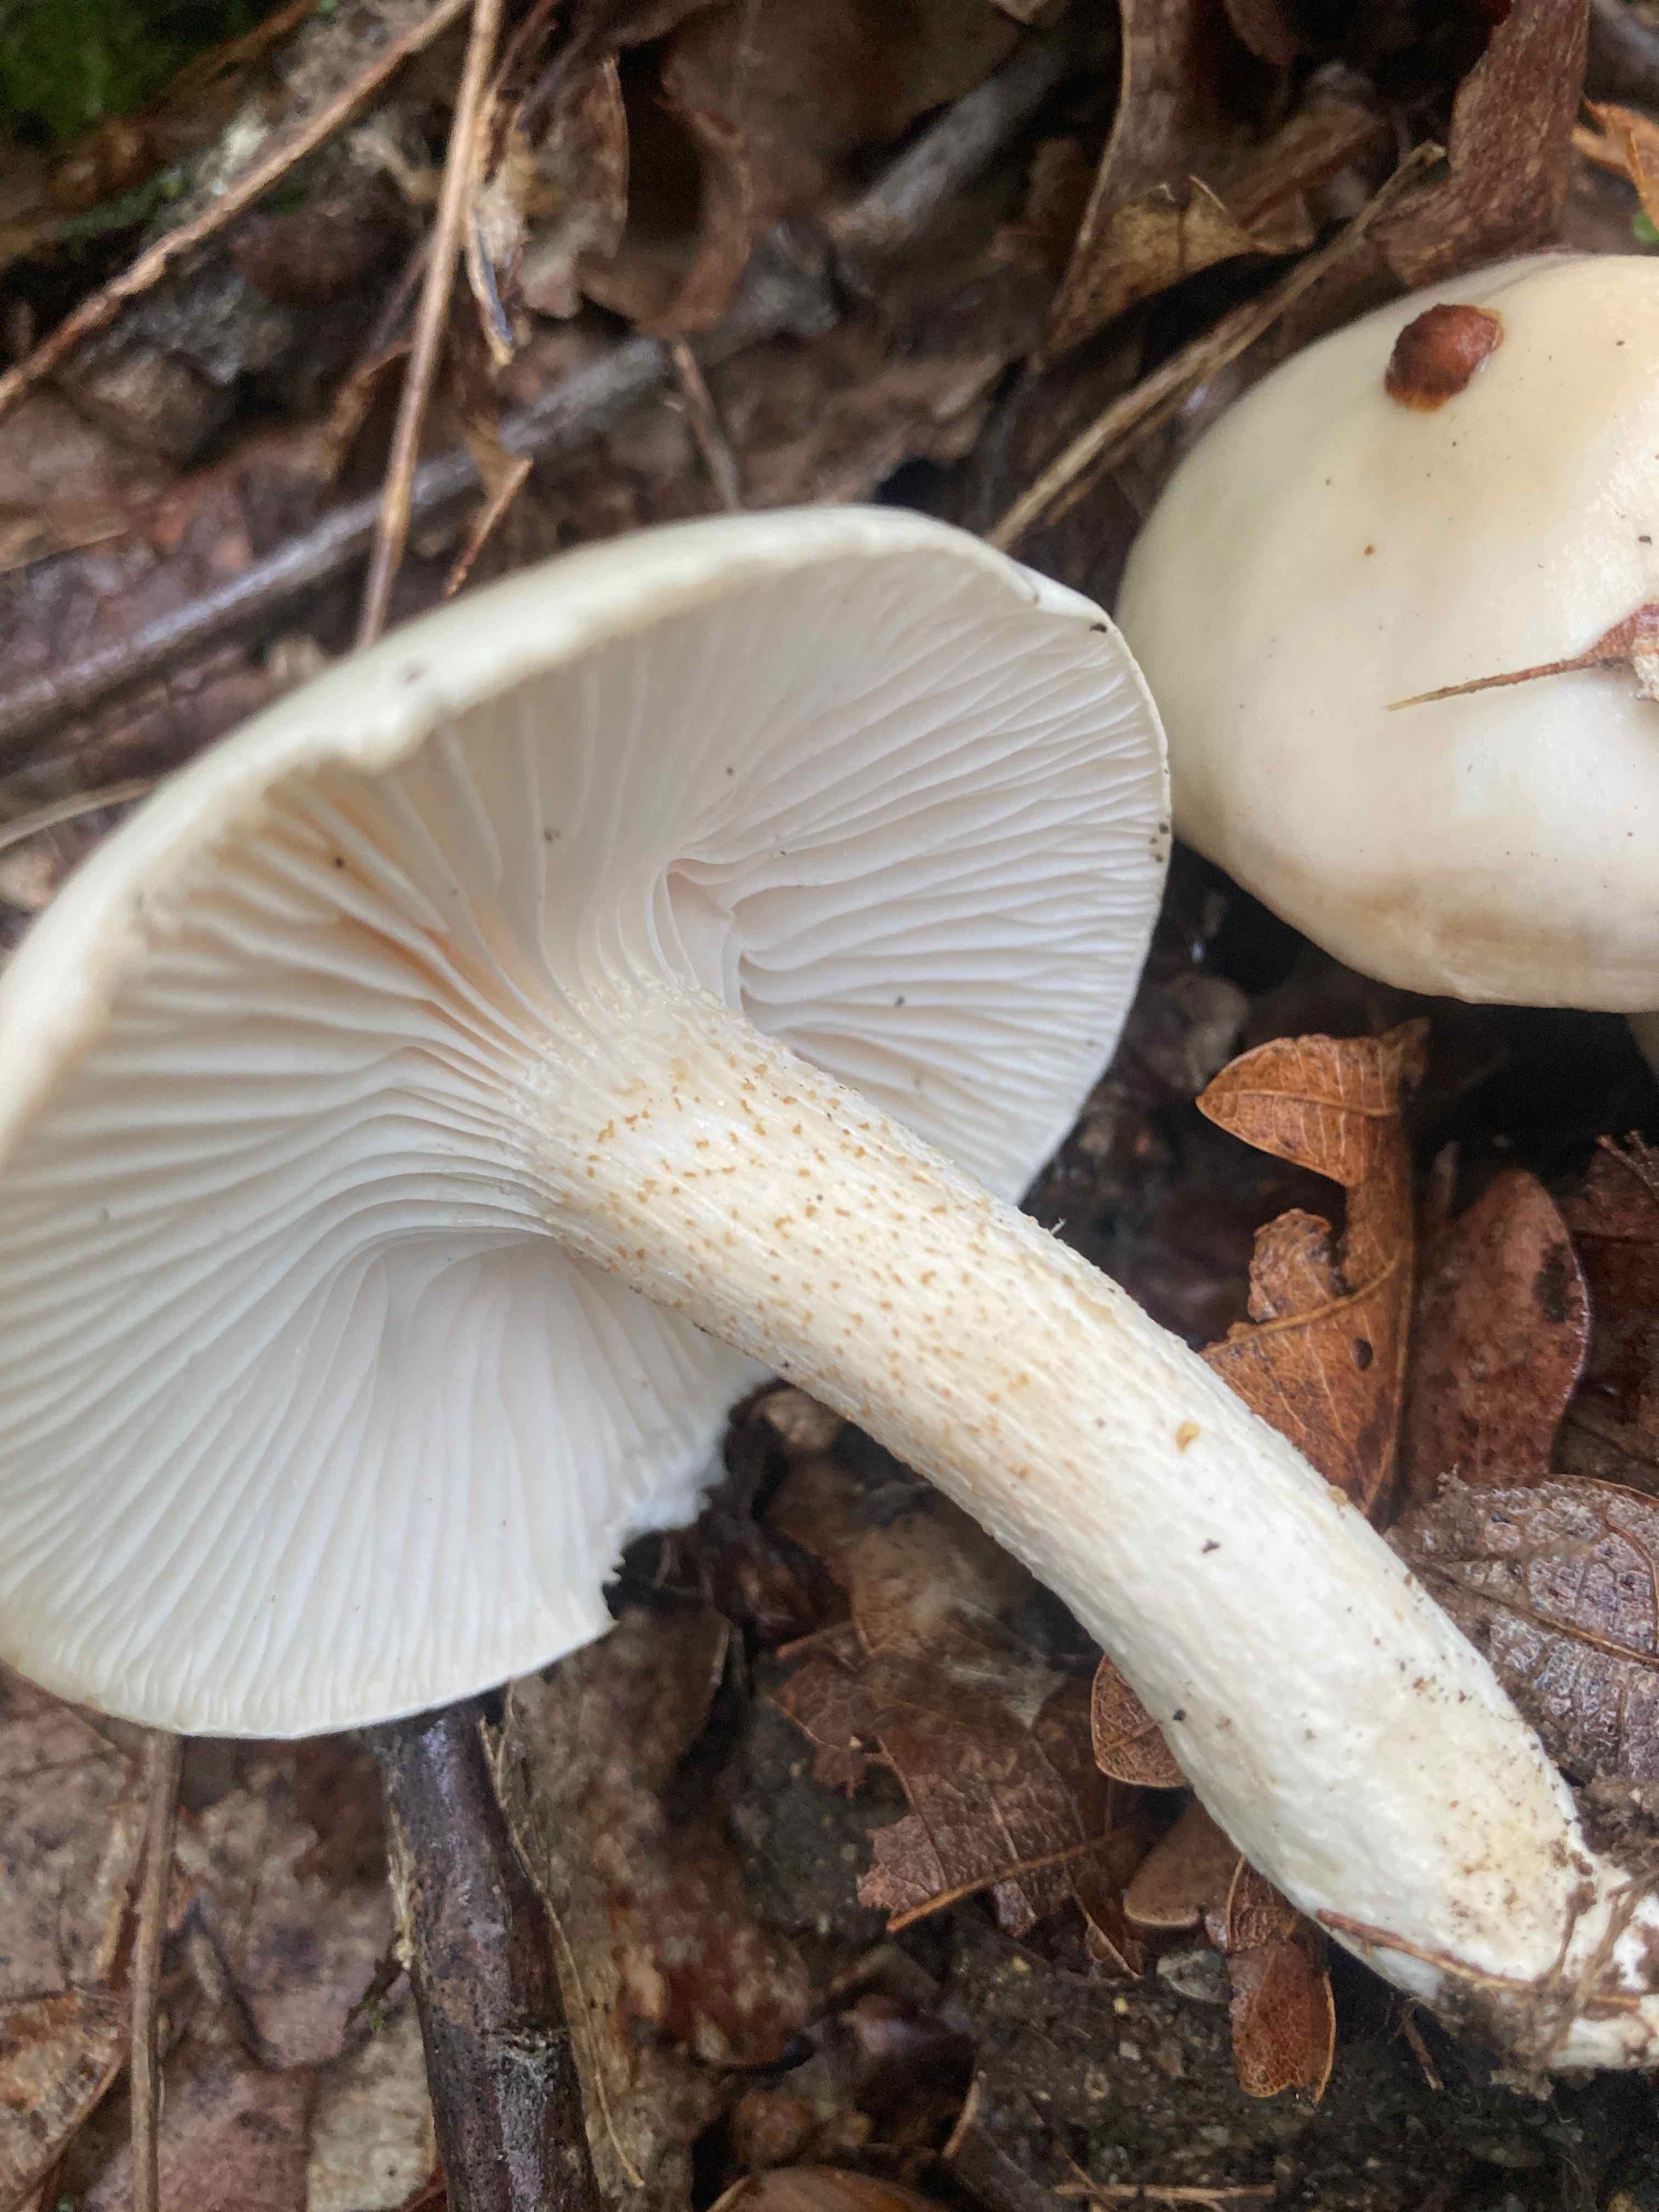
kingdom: Fungi
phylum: Basidiomycota
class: Agaricomycetes
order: Agaricales
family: Hygrophoraceae
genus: Hygrophorus
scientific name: Hygrophorus cossus
